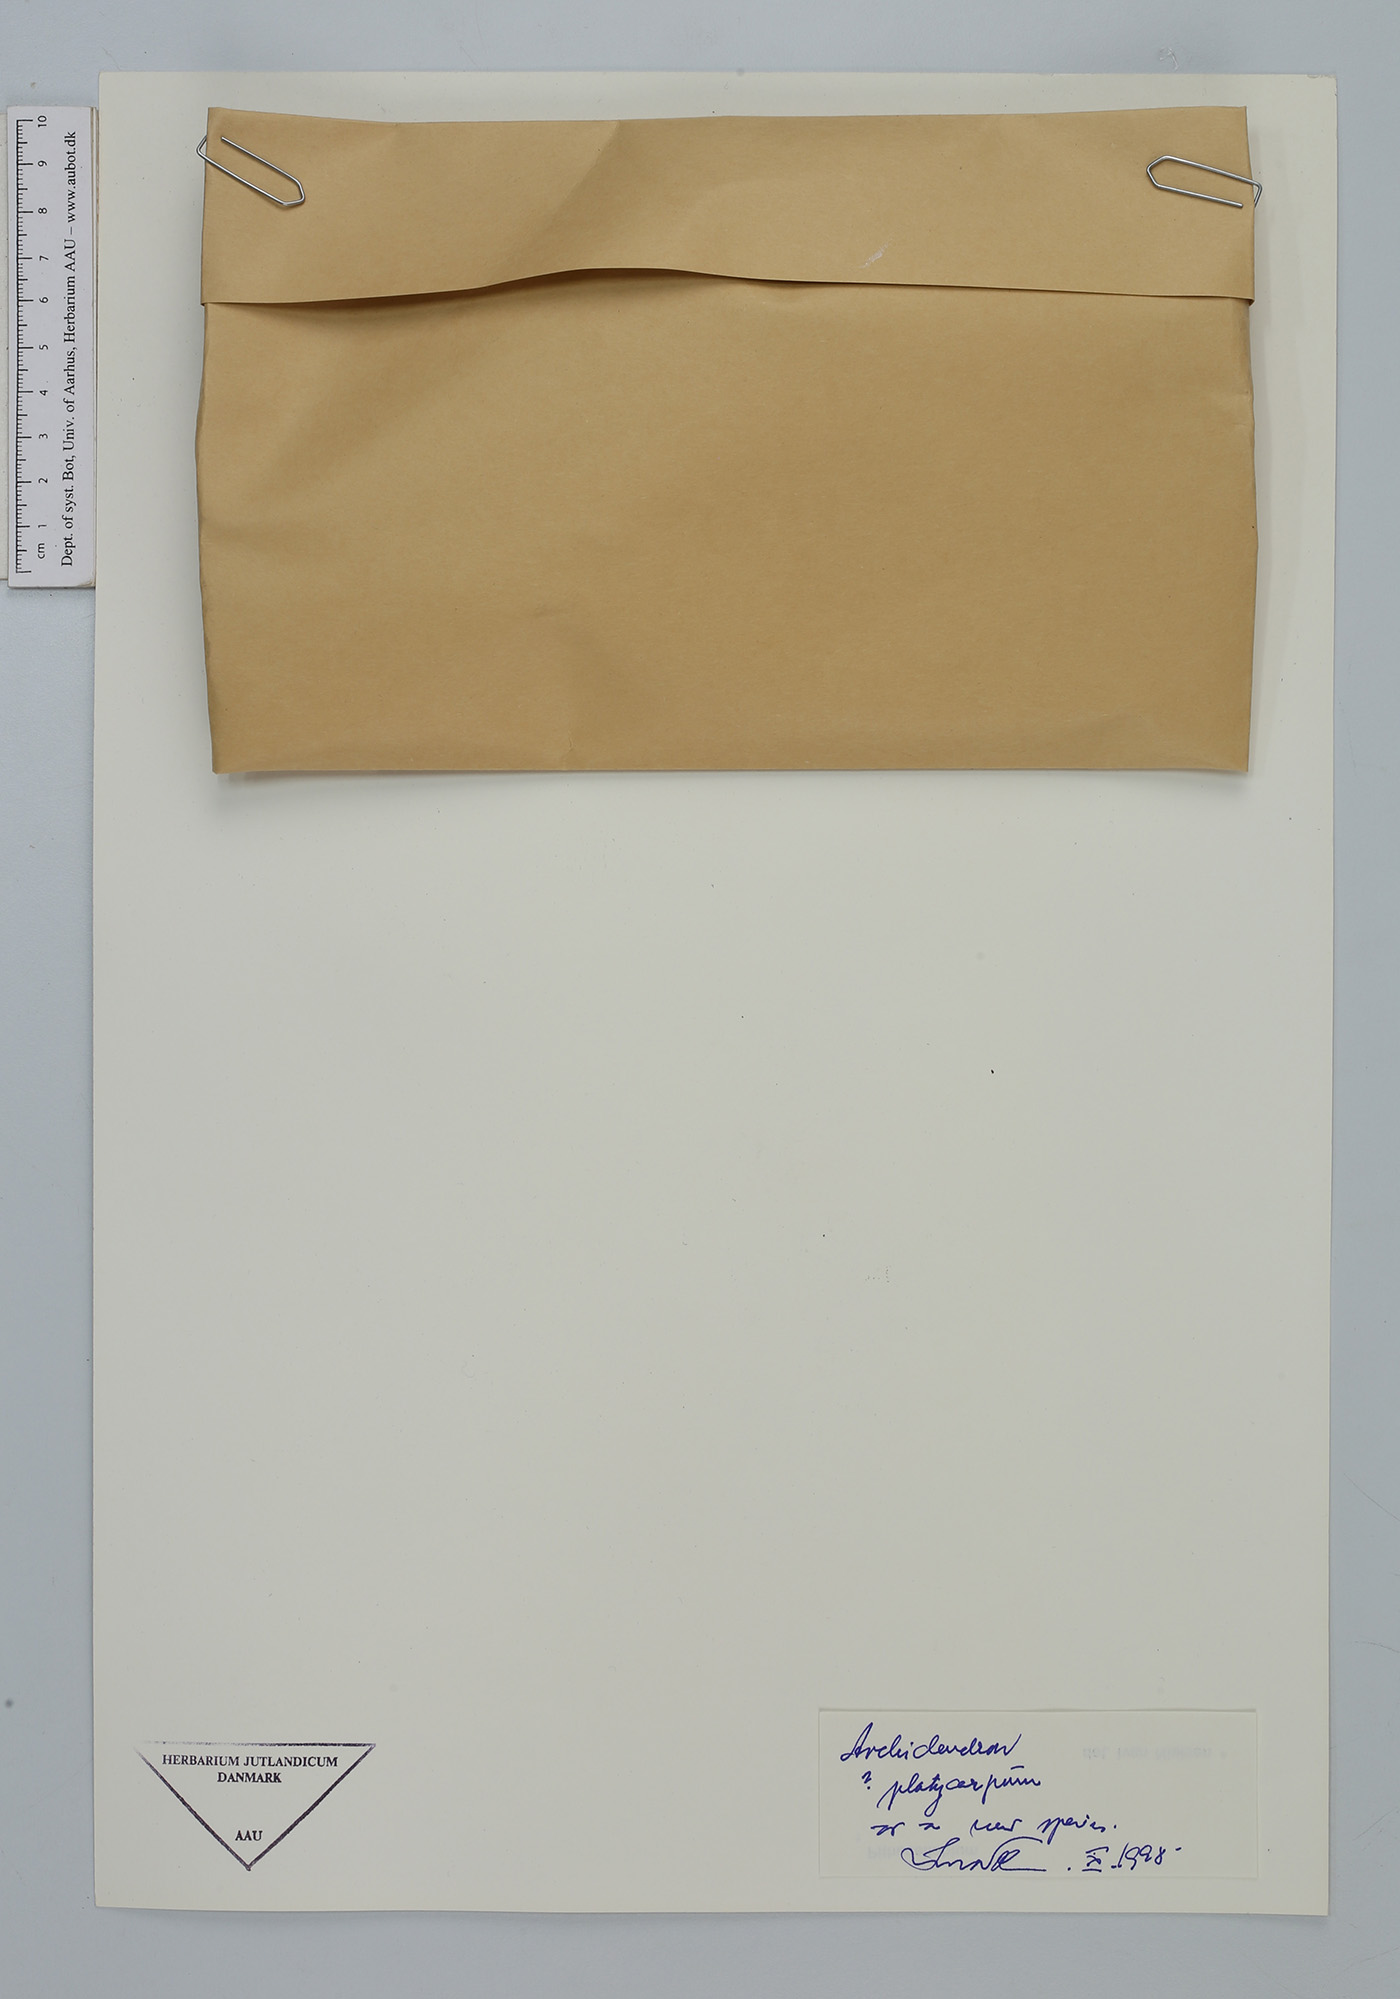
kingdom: Plantae
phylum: Tracheophyta
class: Magnoliopsida
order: Fabales
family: Fabaceae
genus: Archidendron
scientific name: Archidendron
